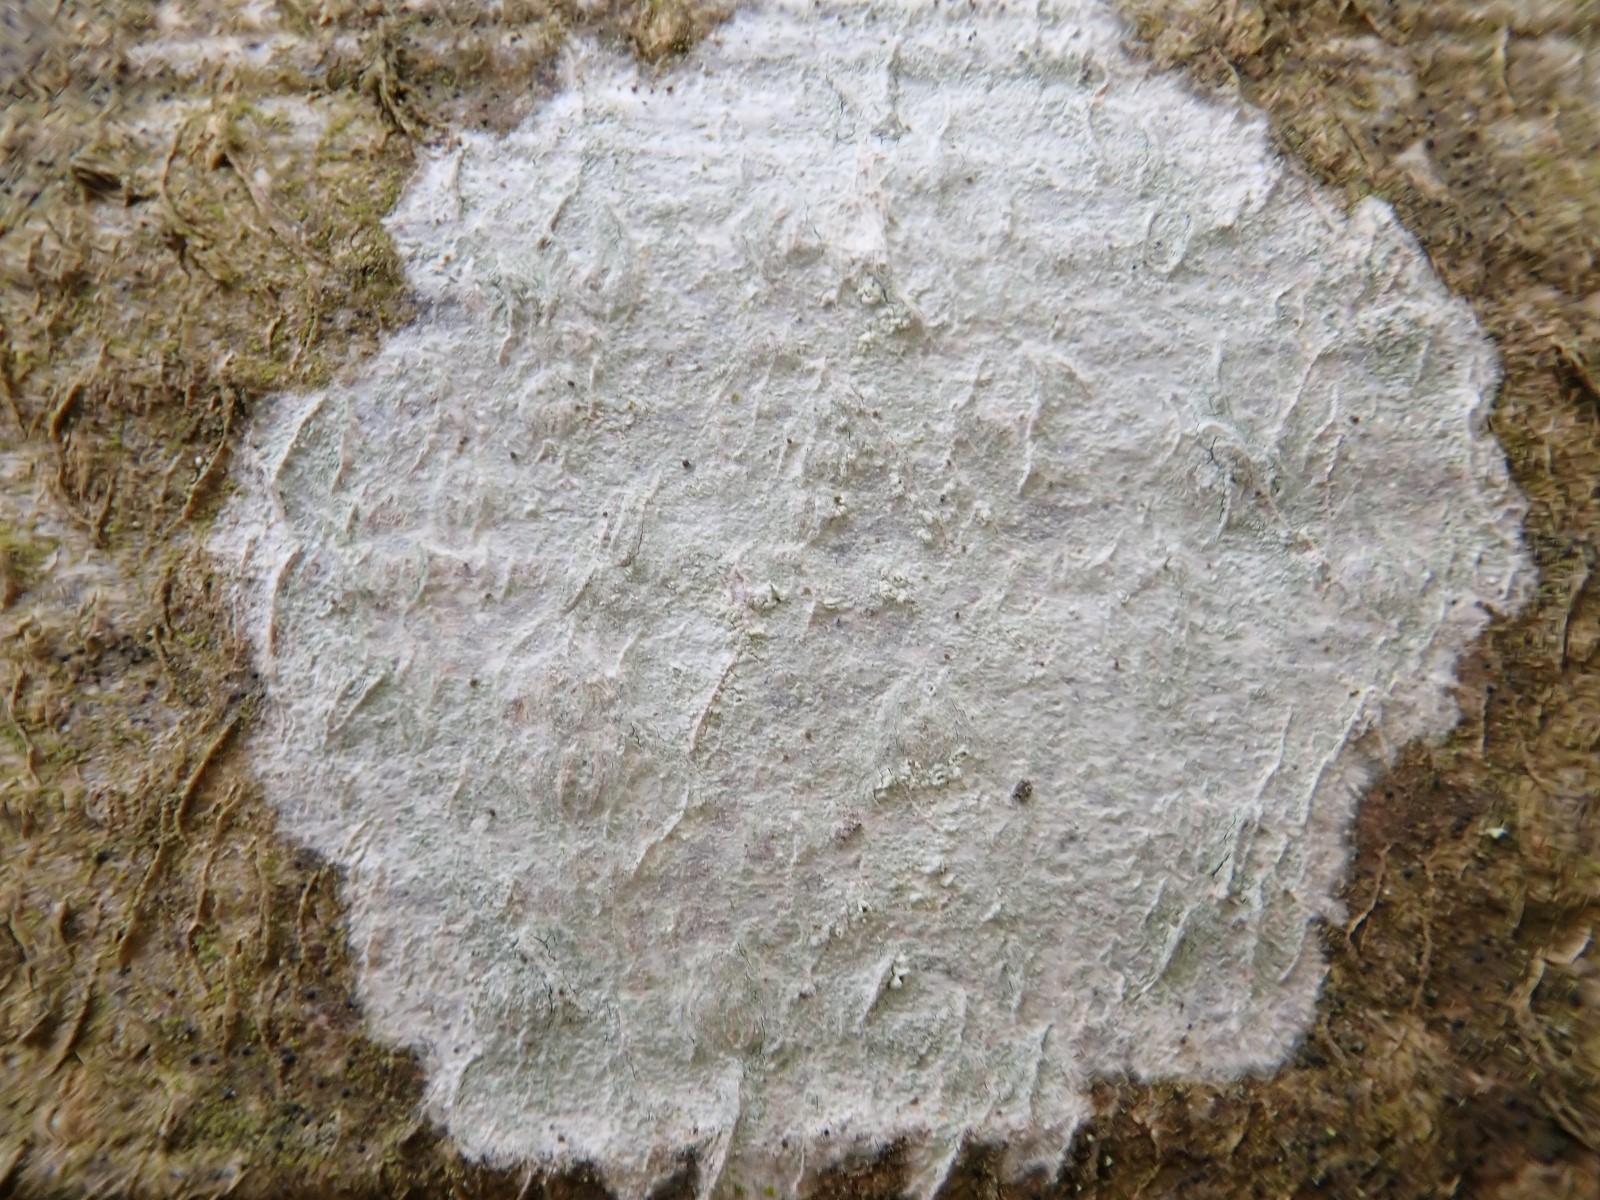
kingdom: Fungi
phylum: Ascomycota
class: Lecanoromycetes
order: Ostropales
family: Phlyctidaceae
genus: Phlyctis
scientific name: Phlyctis argena
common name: almindelig sølvlav
